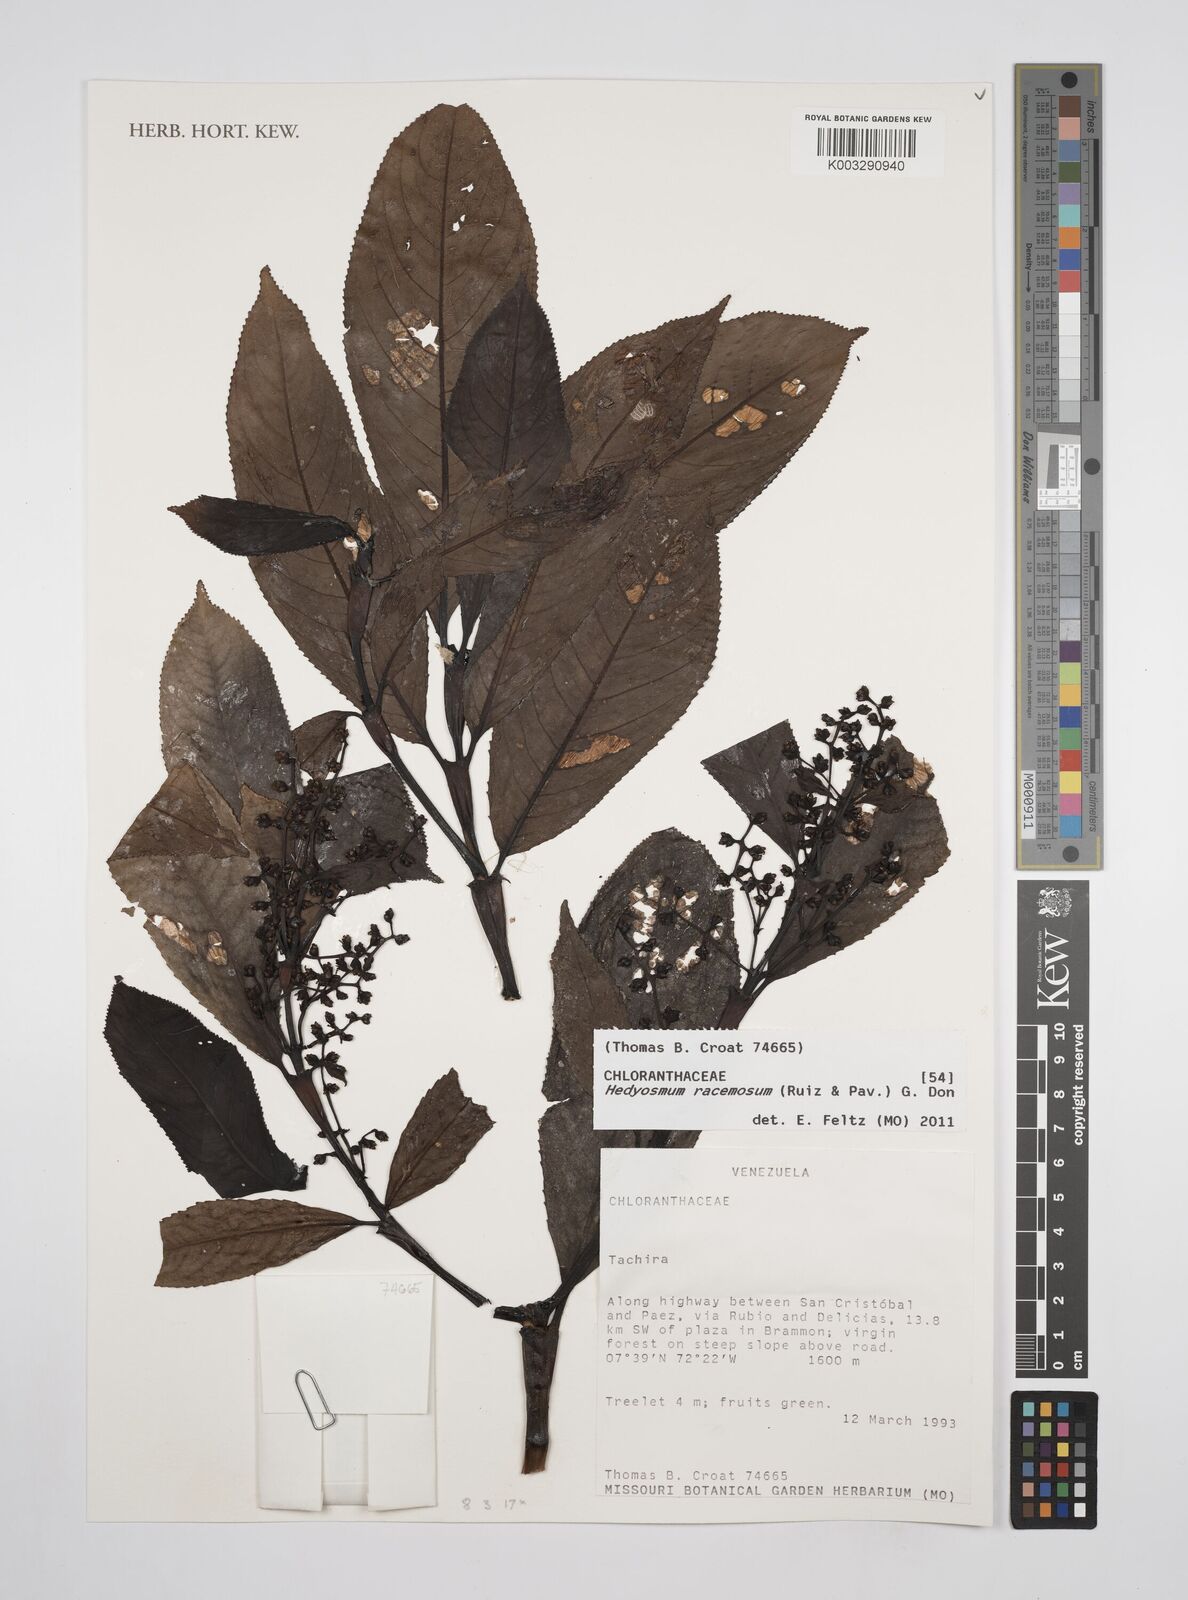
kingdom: Plantae
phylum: Tracheophyta
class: Magnoliopsida
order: Chloranthales
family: Chloranthaceae
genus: Hedyosmum
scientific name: Hedyosmum racemosum
